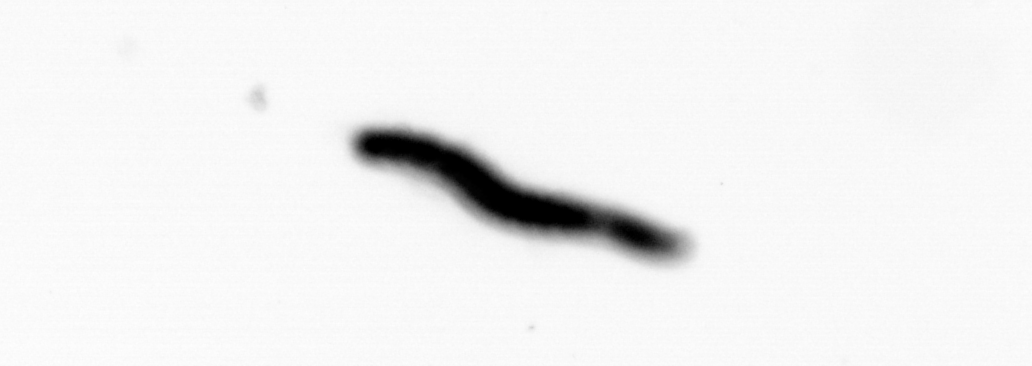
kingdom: Animalia
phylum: Annelida
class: Polychaeta
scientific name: Polychaeta
